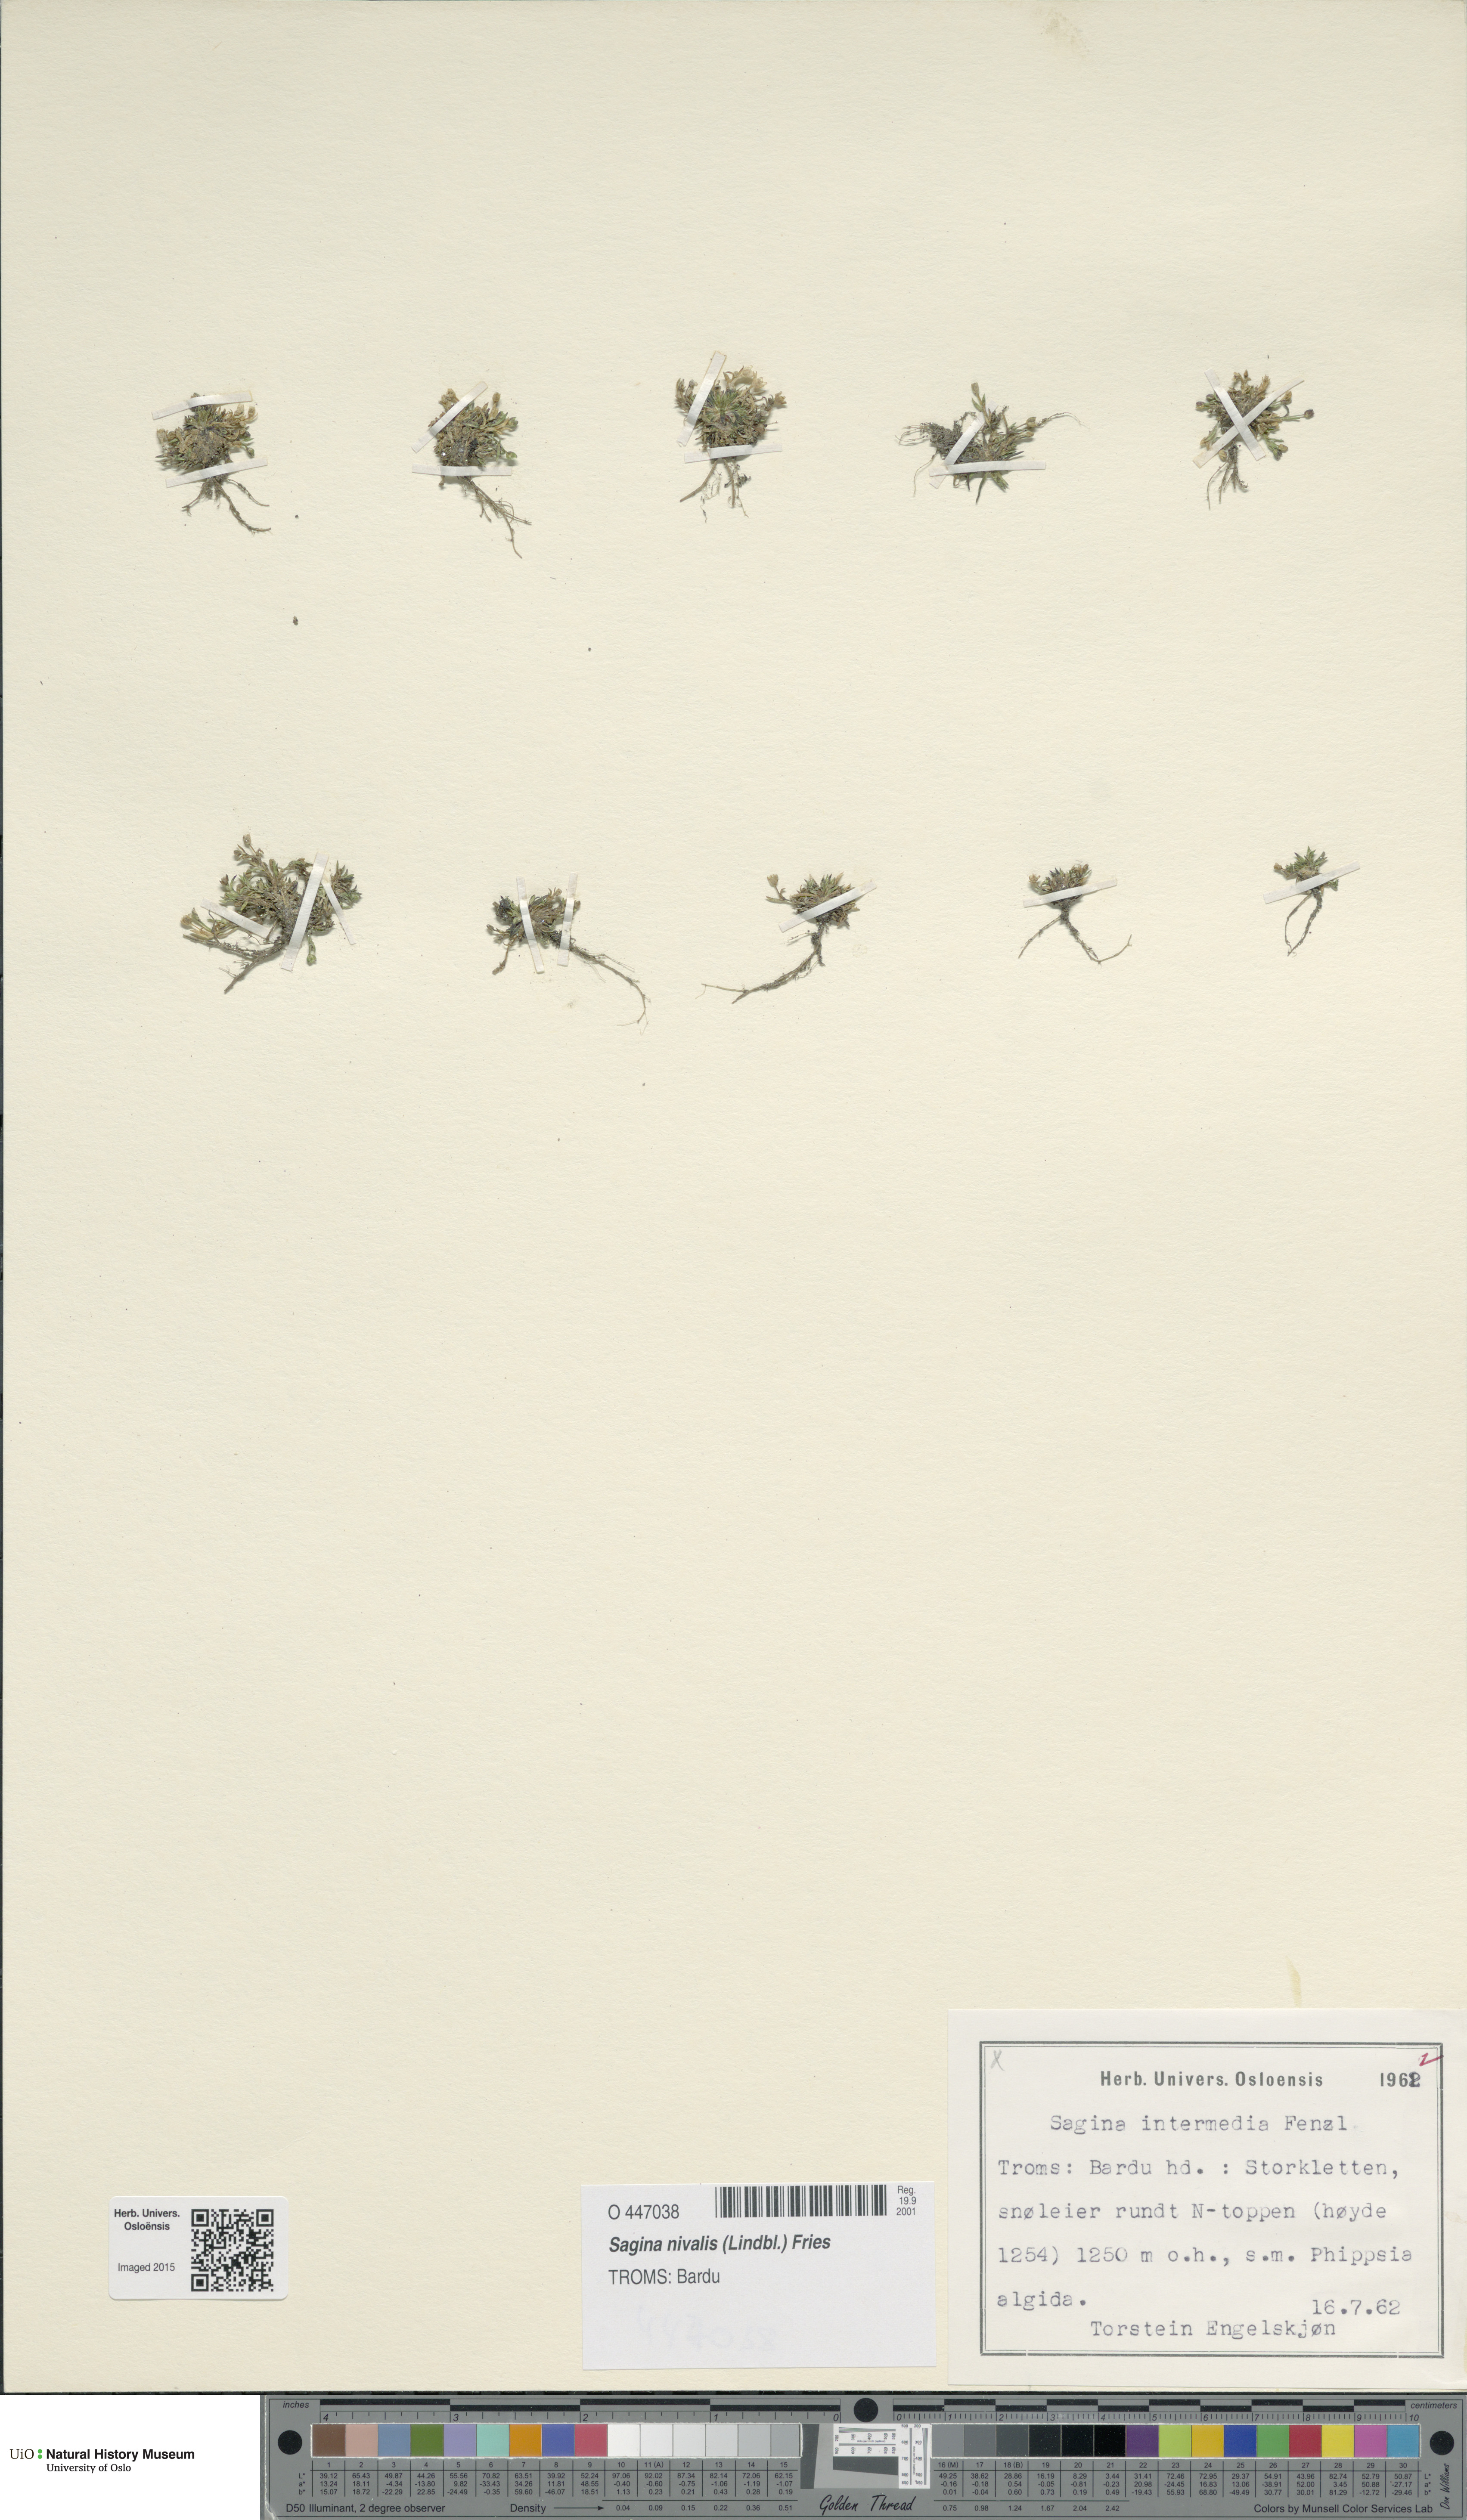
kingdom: Plantae
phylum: Tracheophyta
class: Magnoliopsida
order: Caryophyllales
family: Caryophyllaceae
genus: Sagina
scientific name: Sagina nivalis
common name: Snow pearlwort
